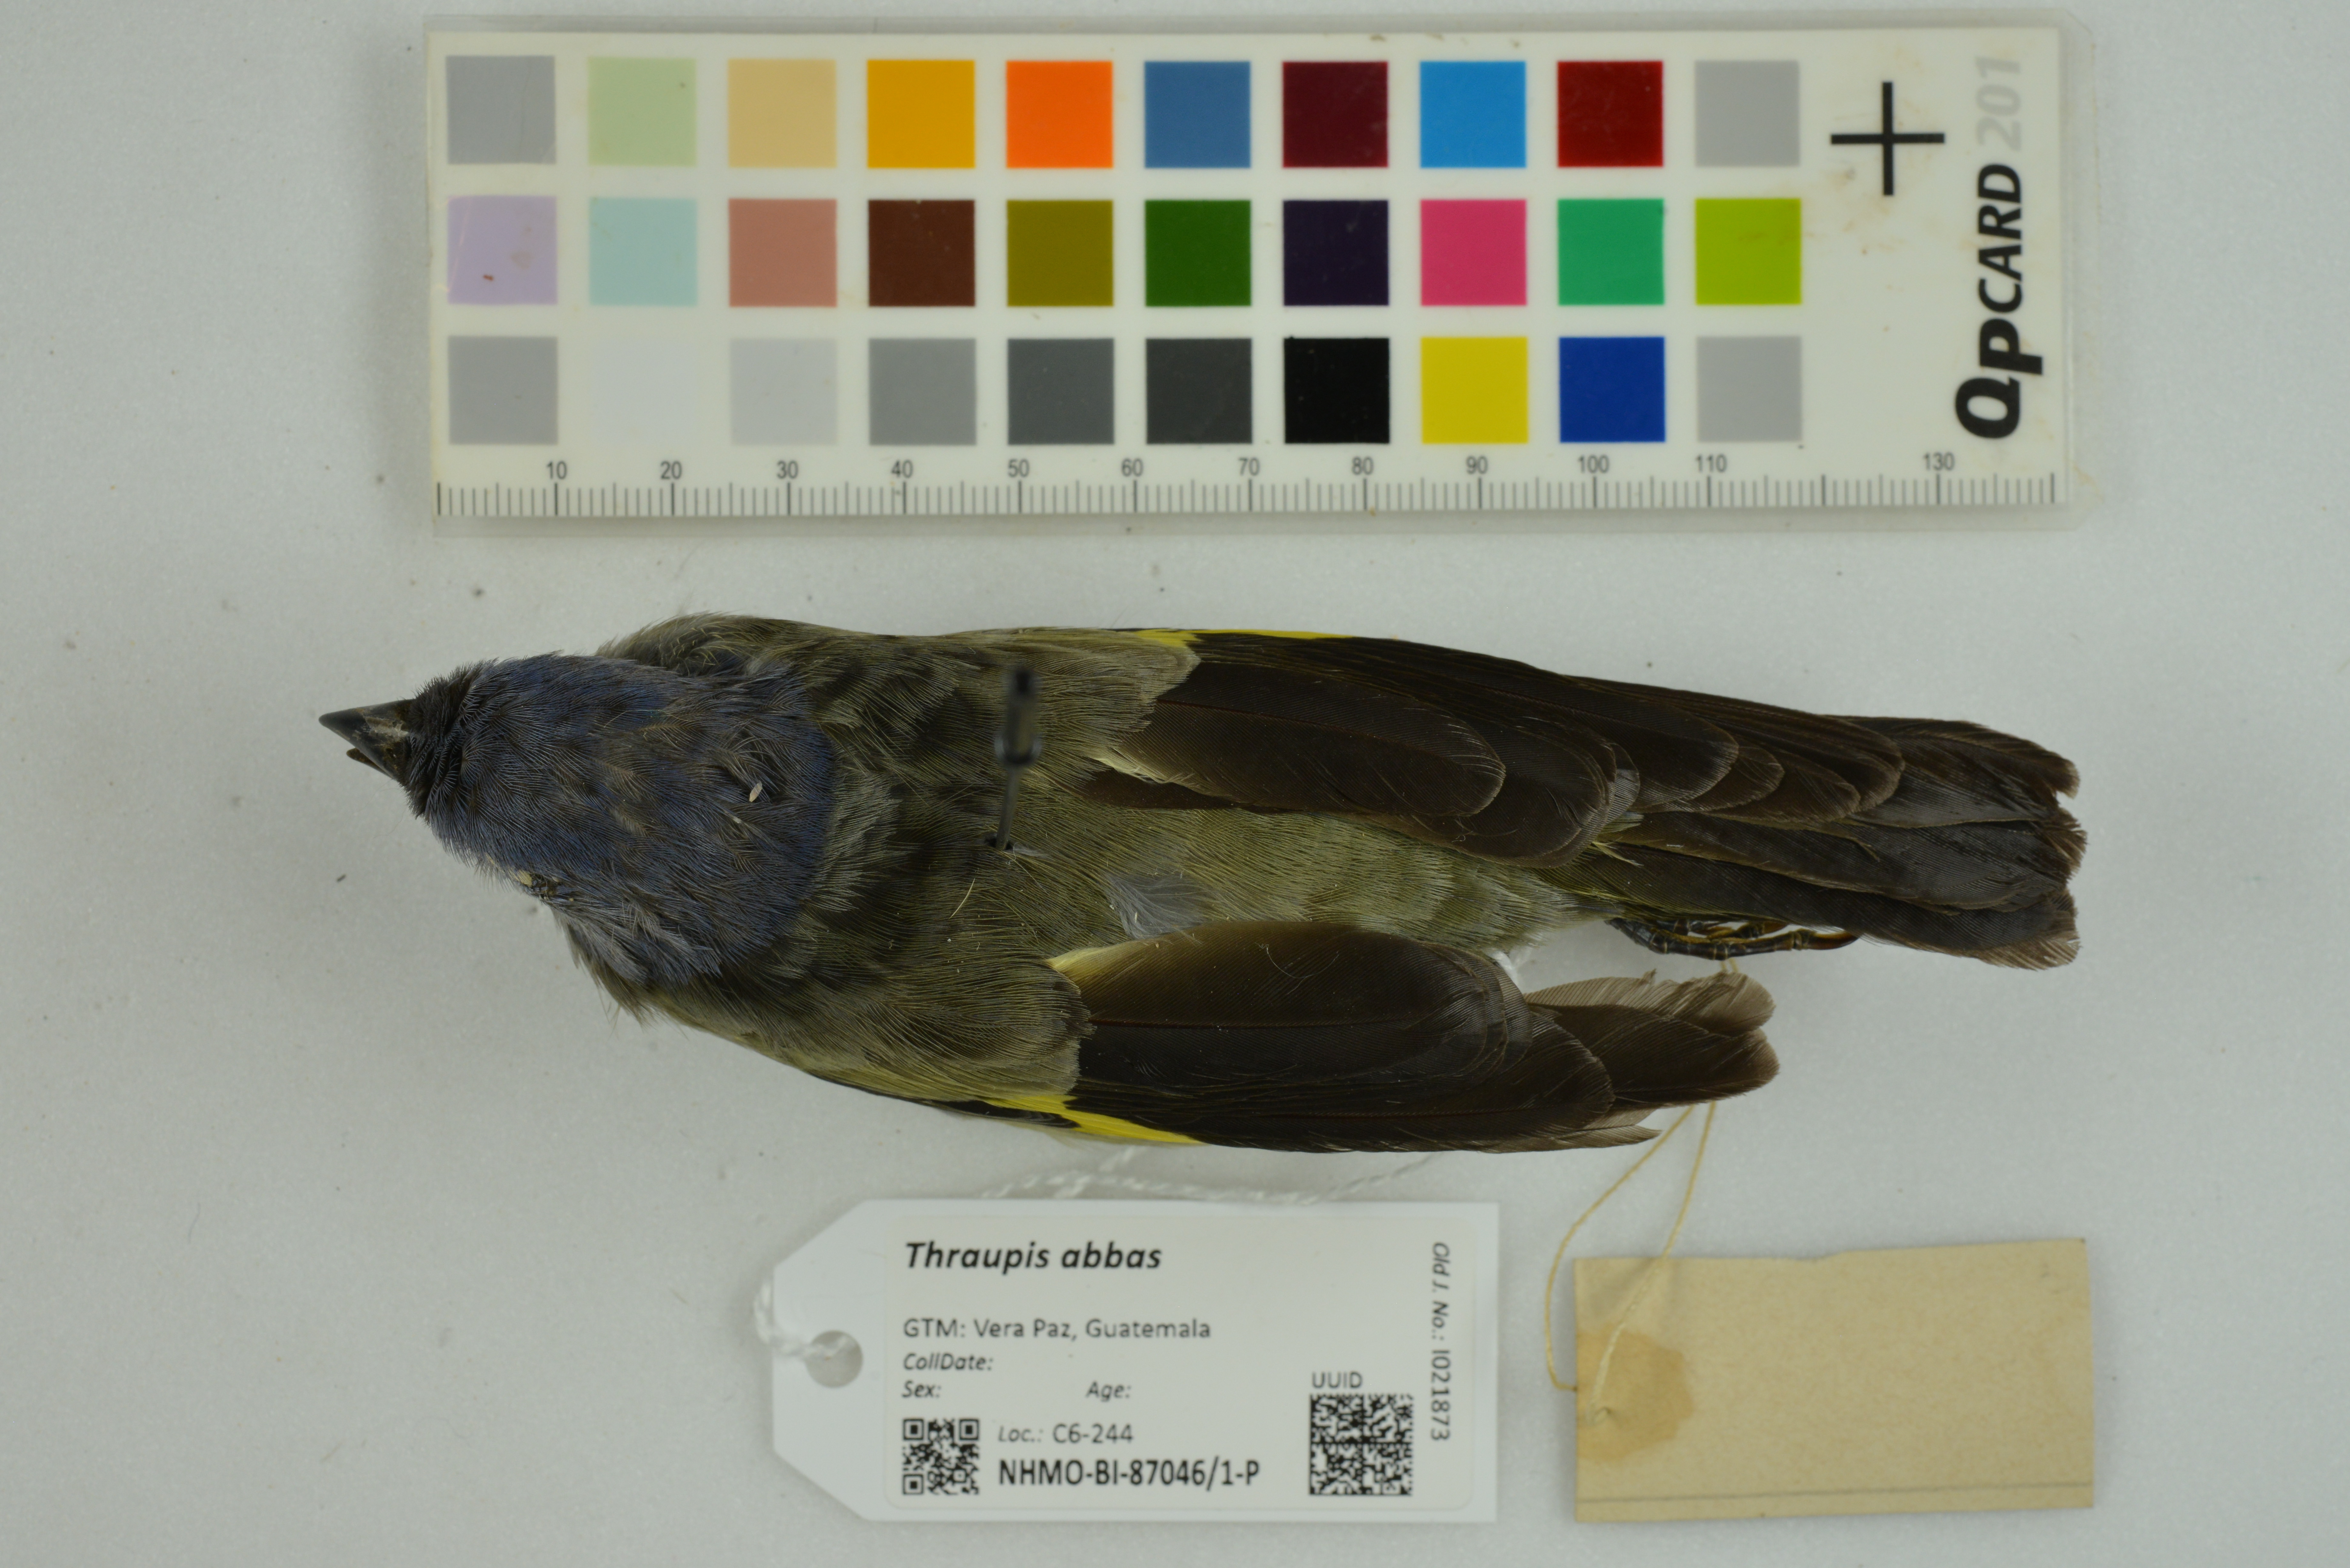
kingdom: Animalia
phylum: Chordata
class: Aves
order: Passeriformes
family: Thraupidae
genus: Thraupis
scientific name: Thraupis abbas
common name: Yellow-winged tanager
